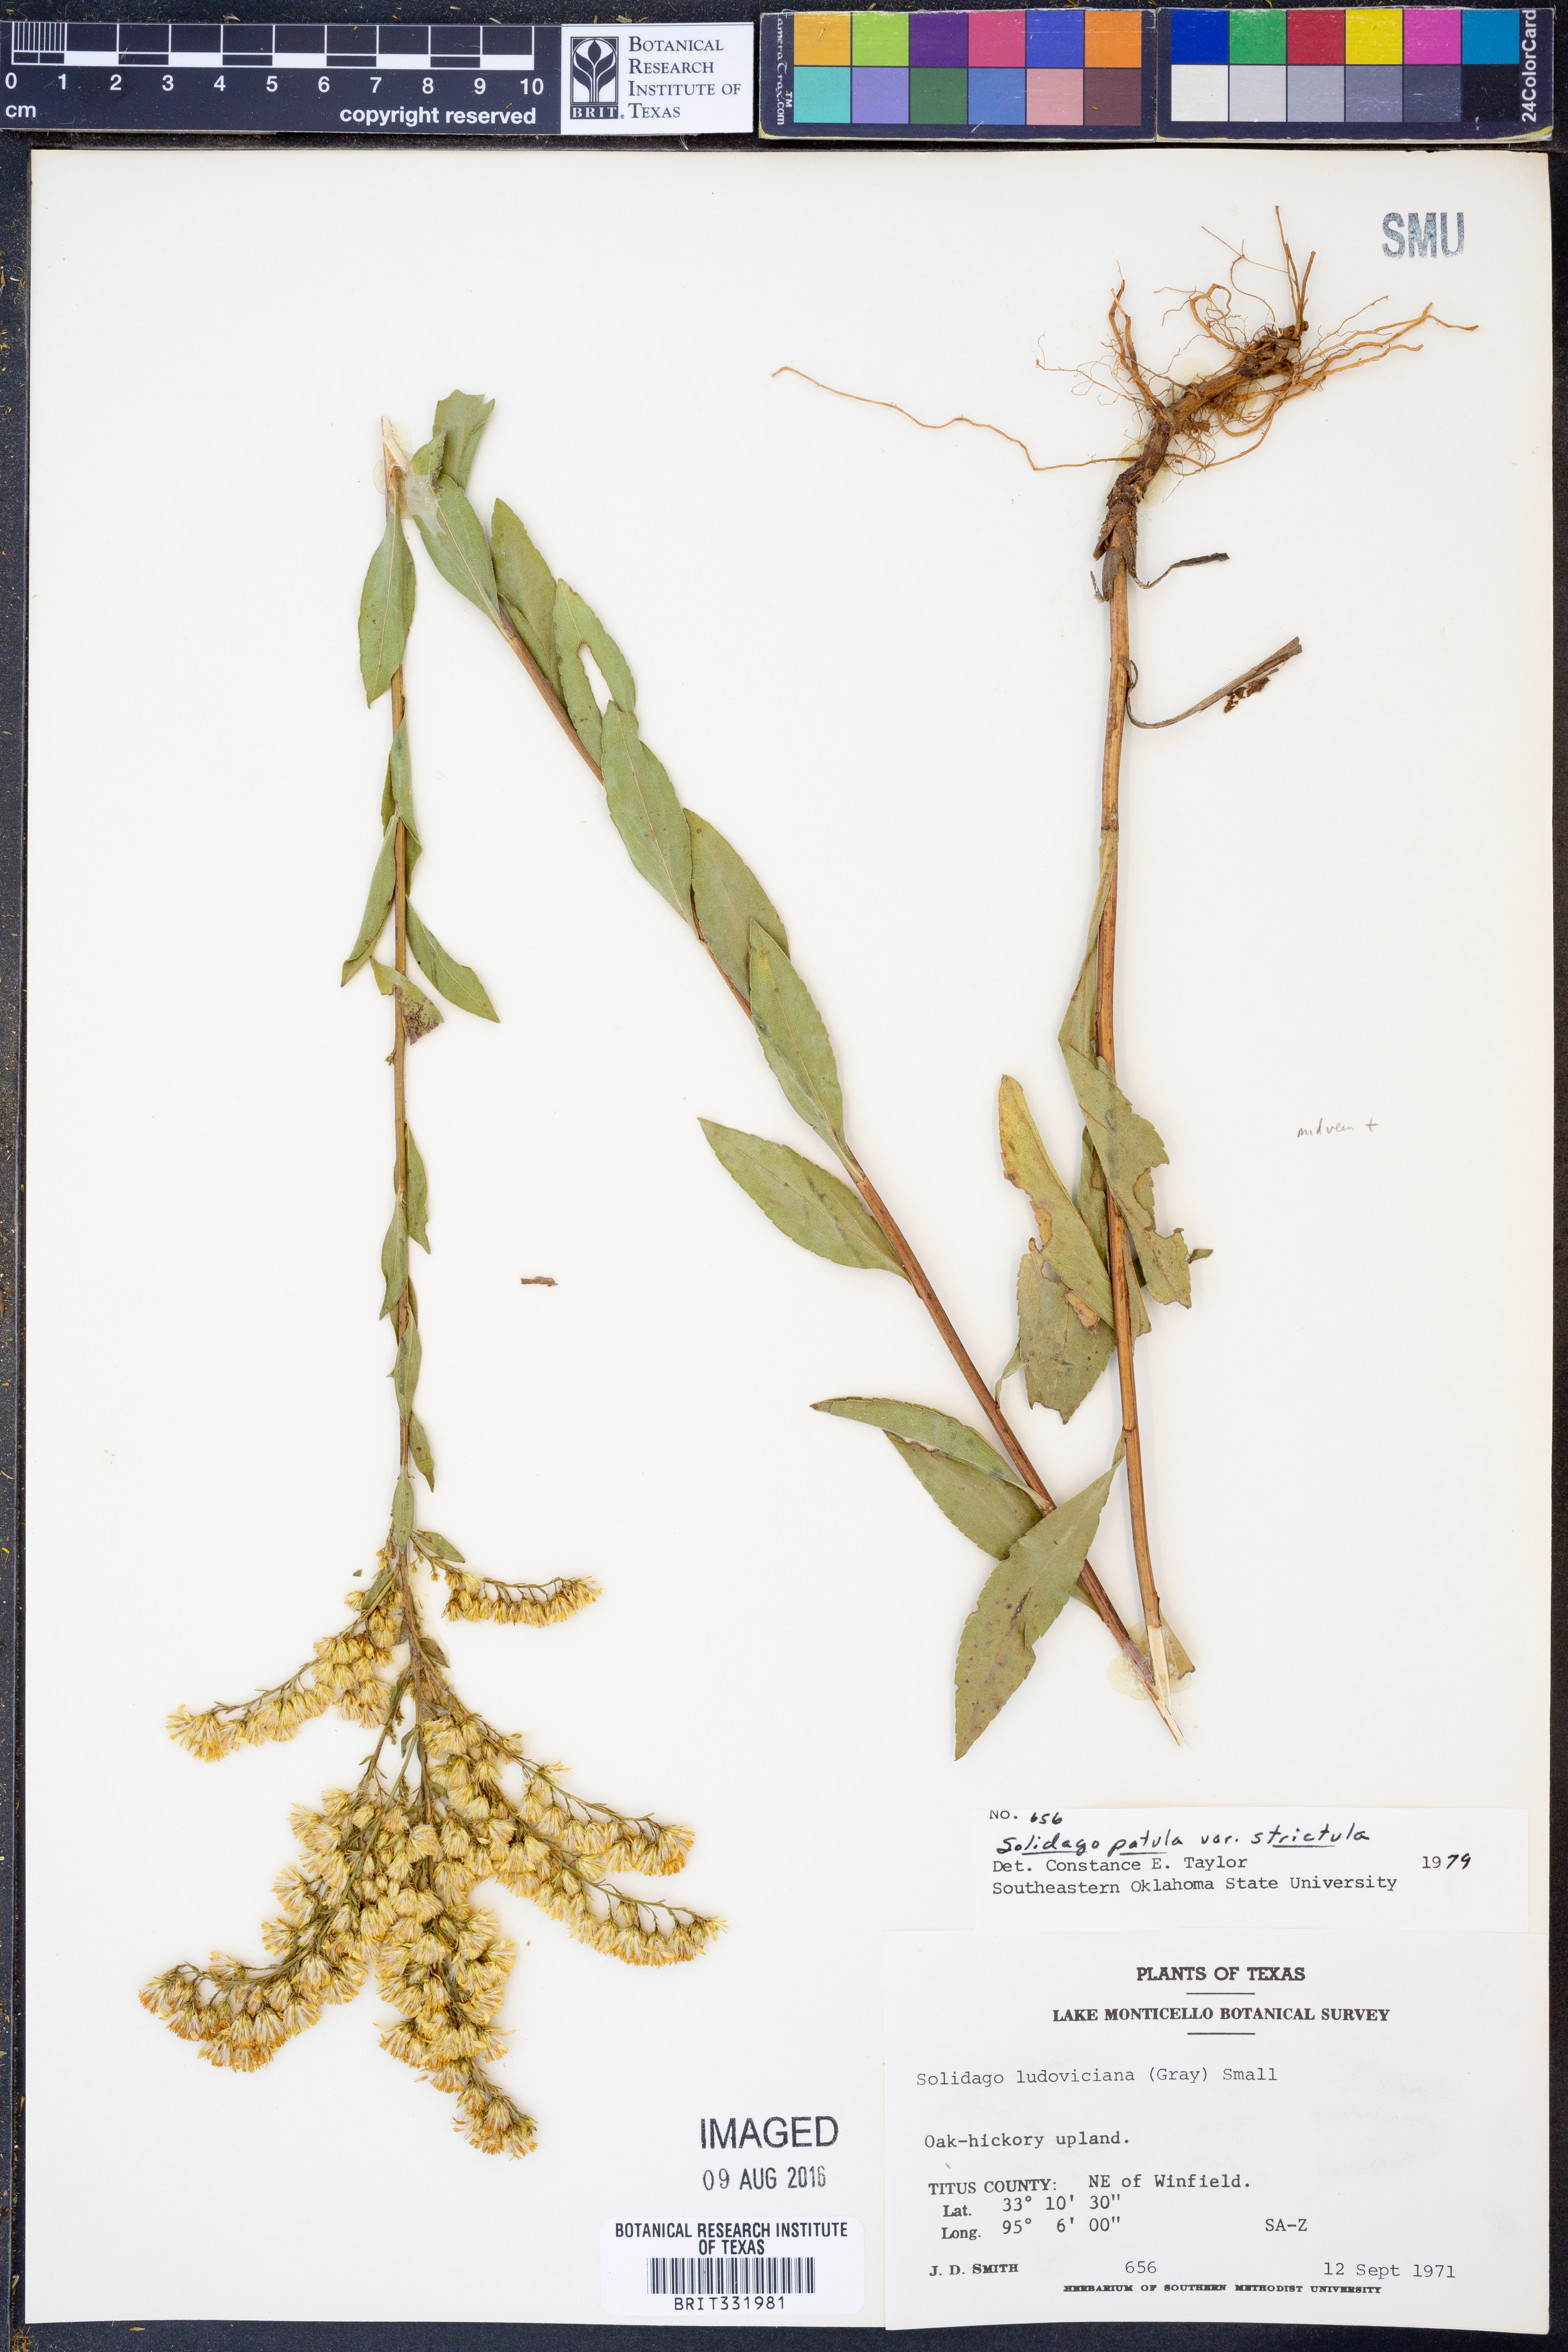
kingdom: Plantae
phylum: Tracheophyta
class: Magnoliopsida
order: Asterales
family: Asteraceae
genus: Solidago
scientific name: Solidago salicina
